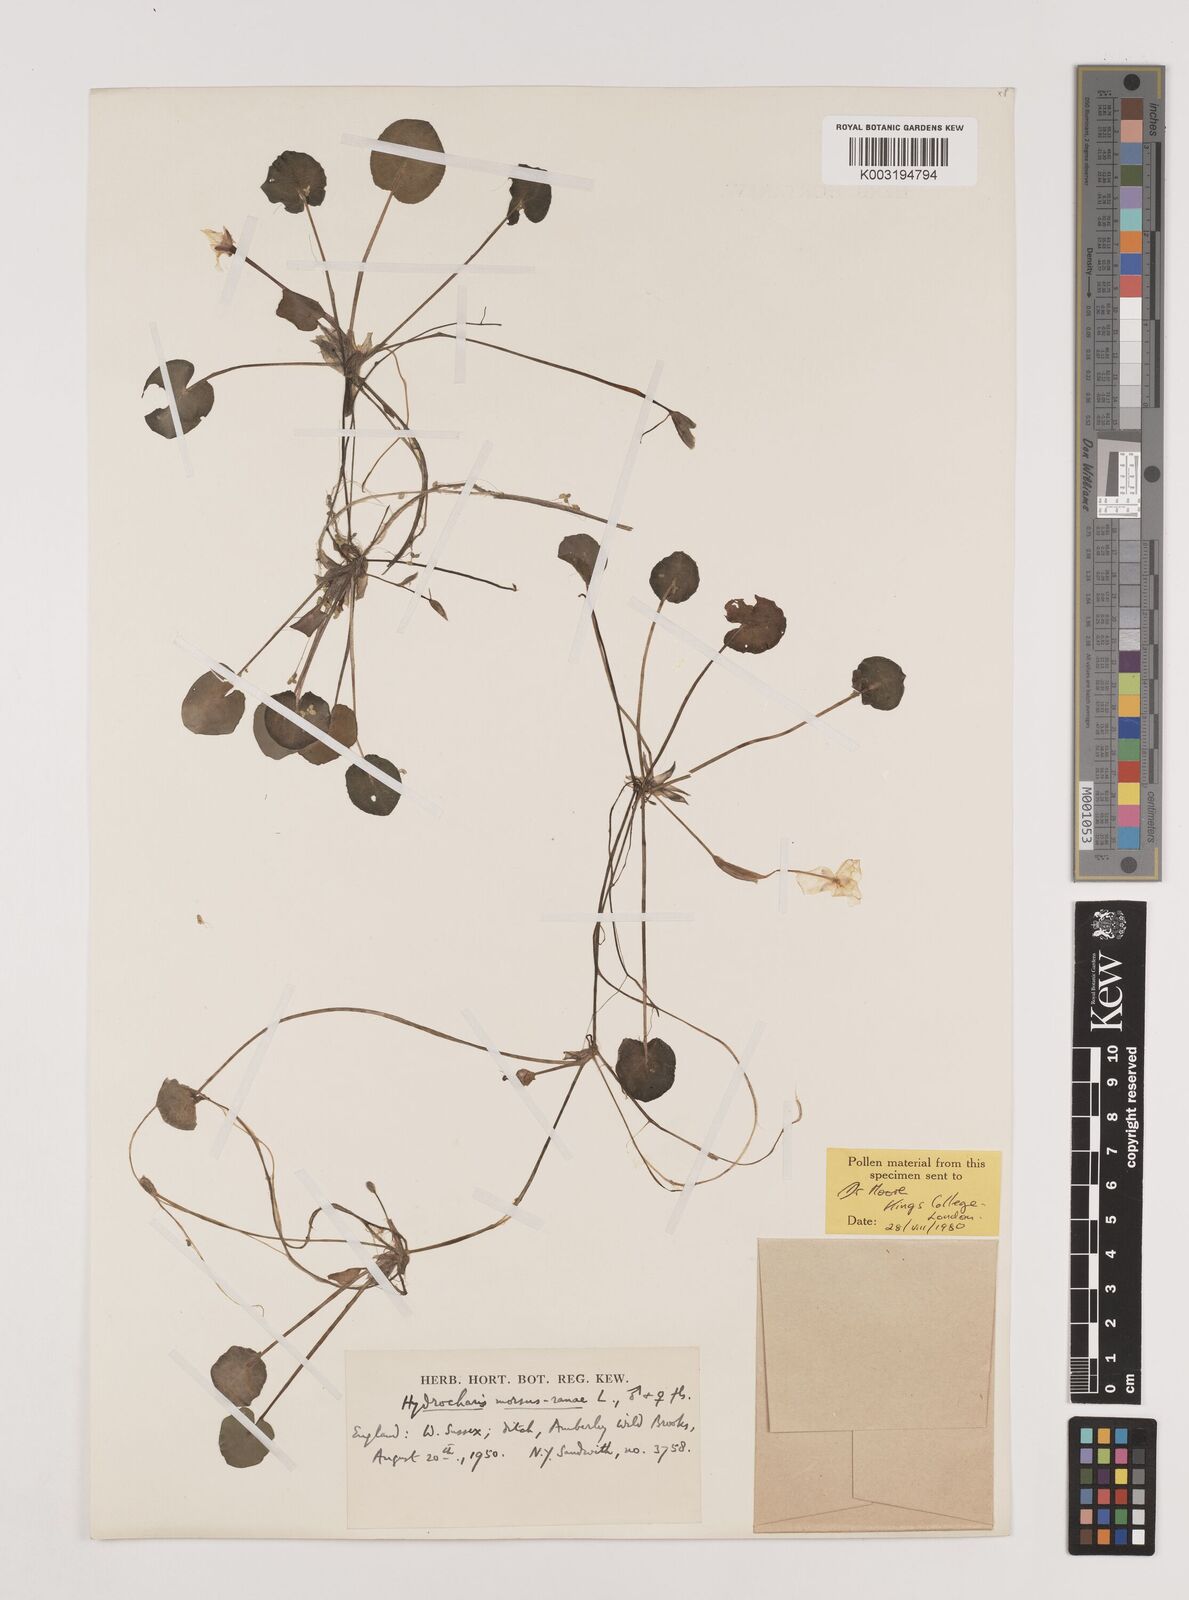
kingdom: Plantae
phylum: Tracheophyta
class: Liliopsida
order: Alismatales
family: Hydrocharitaceae
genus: Hydrocharis
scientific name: Hydrocharis morsus-ranae
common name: Frogbit
